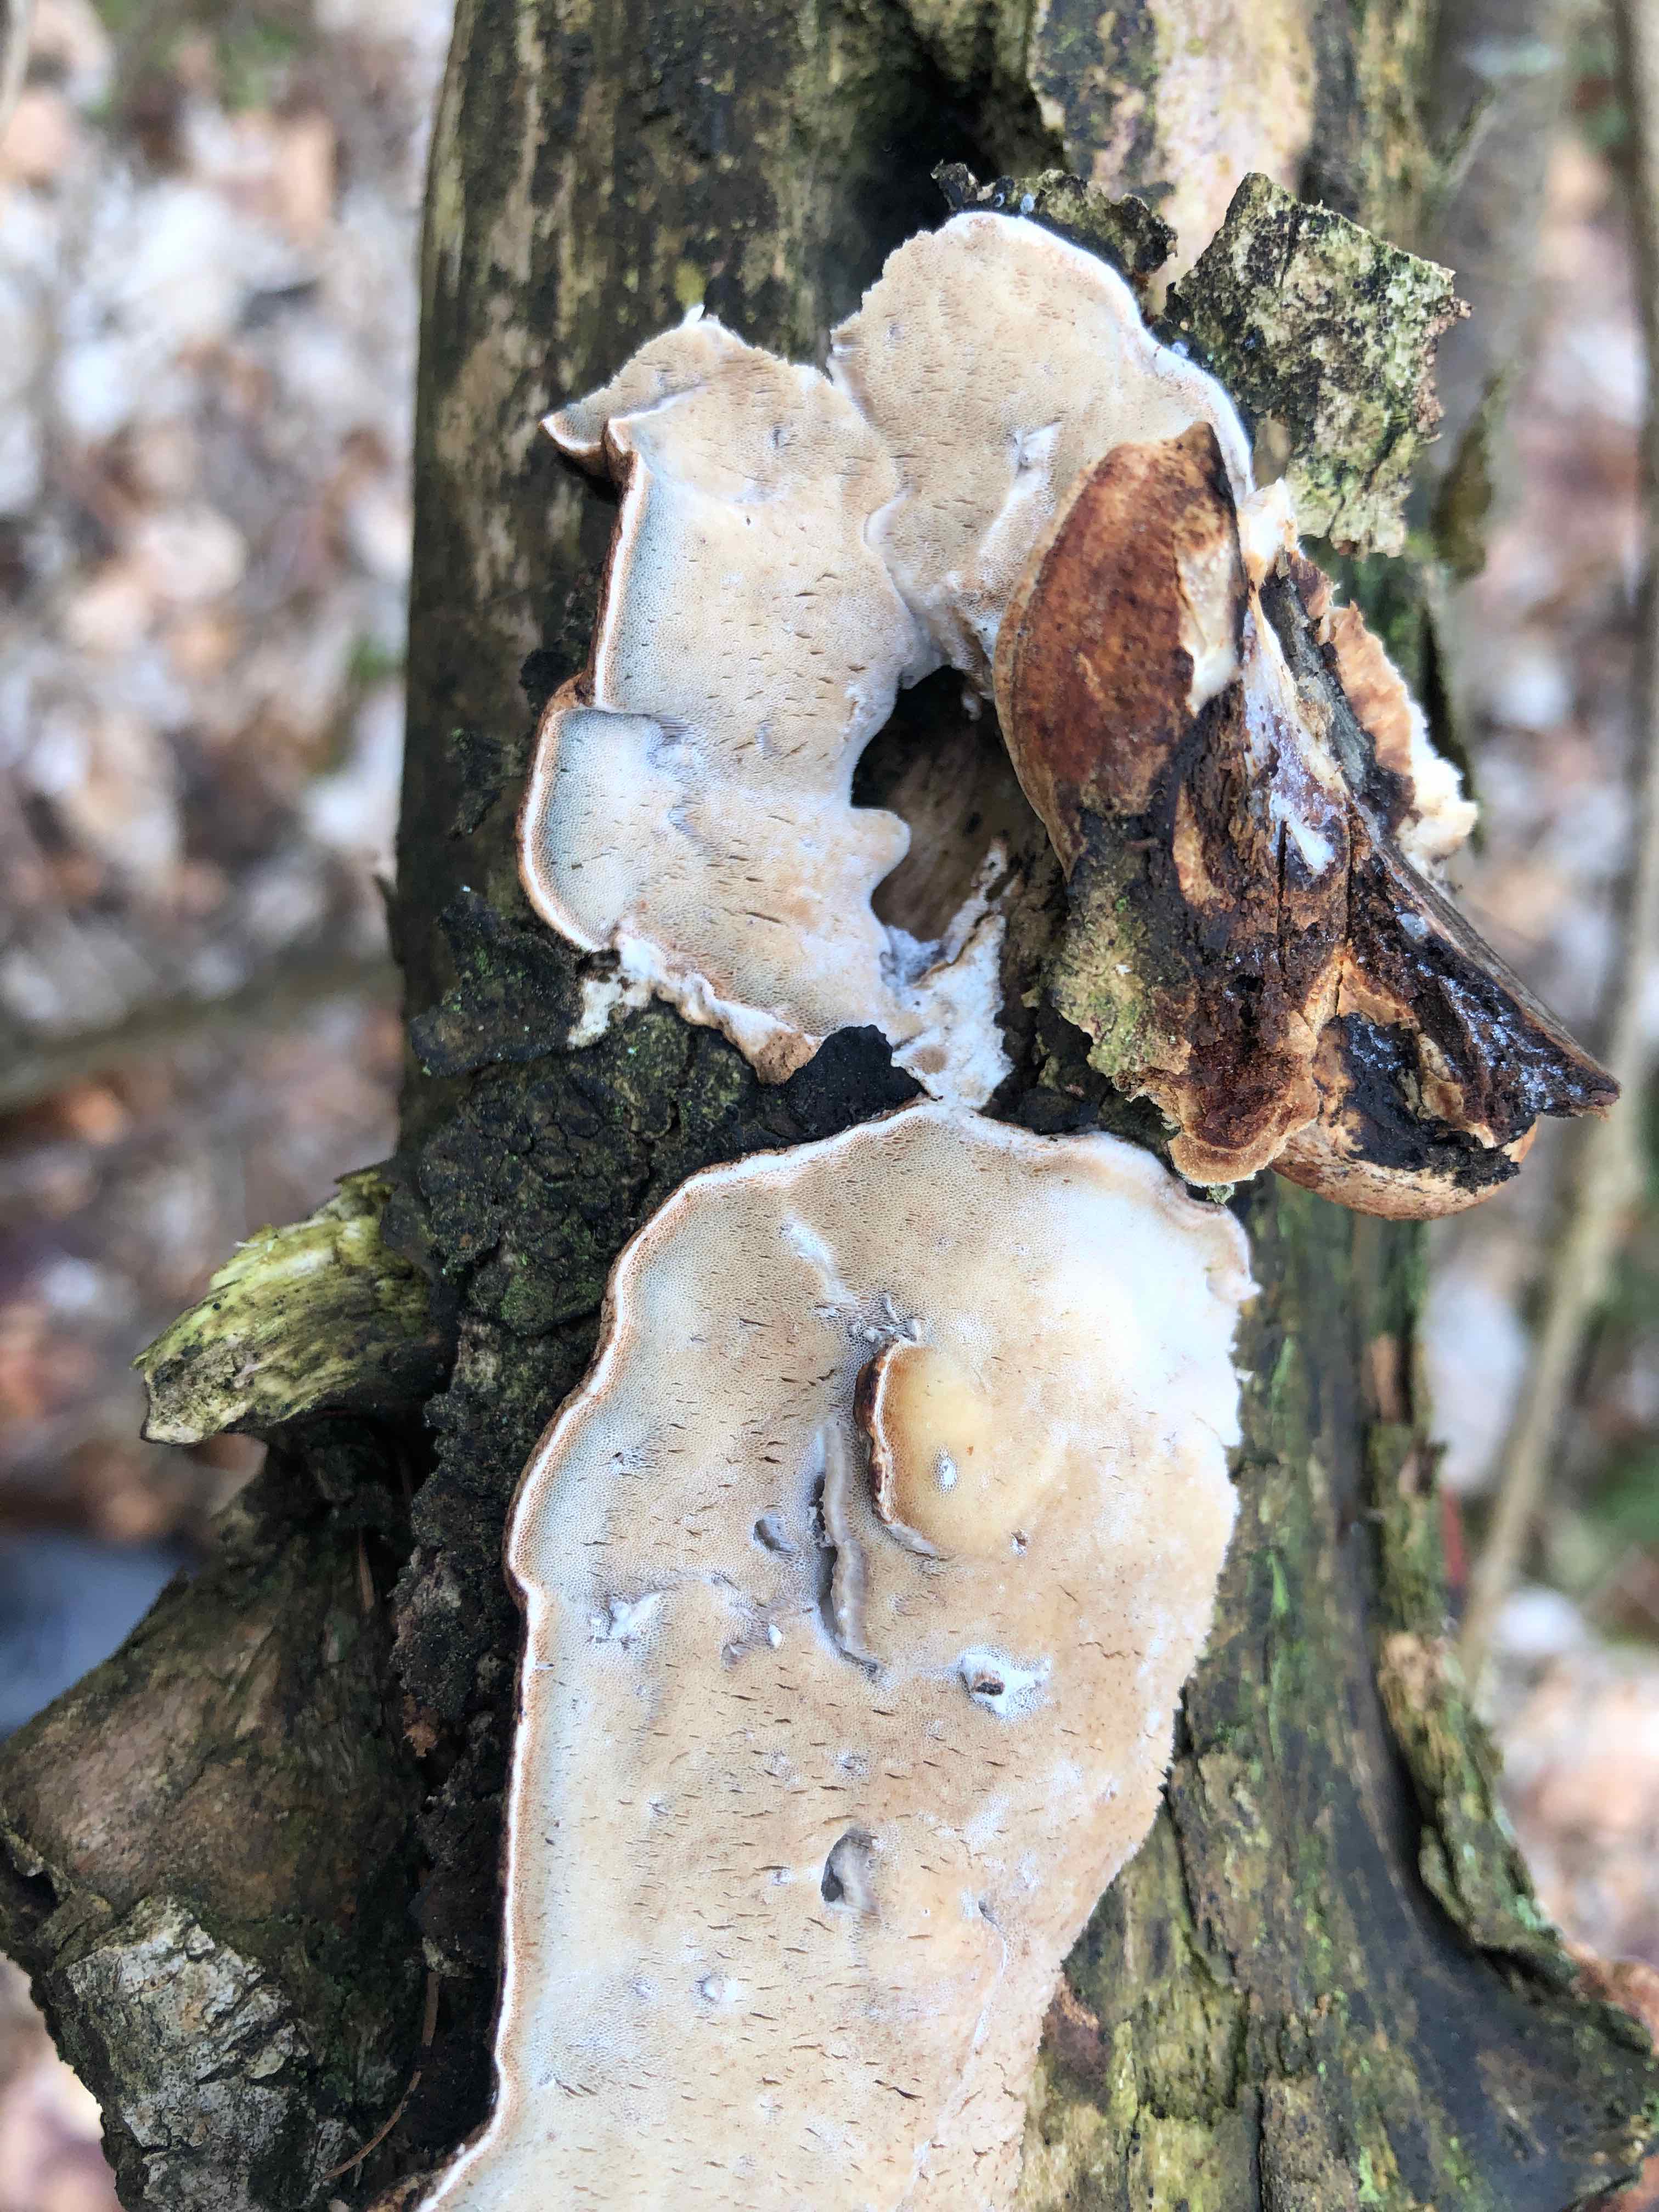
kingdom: Fungi
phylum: Basidiomycota
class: Agaricomycetes
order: Polyporales
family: Incrustoporiaceae
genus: Skeletocutis
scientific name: Skeletocutis nemoralis
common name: stor krystalporesvamp
